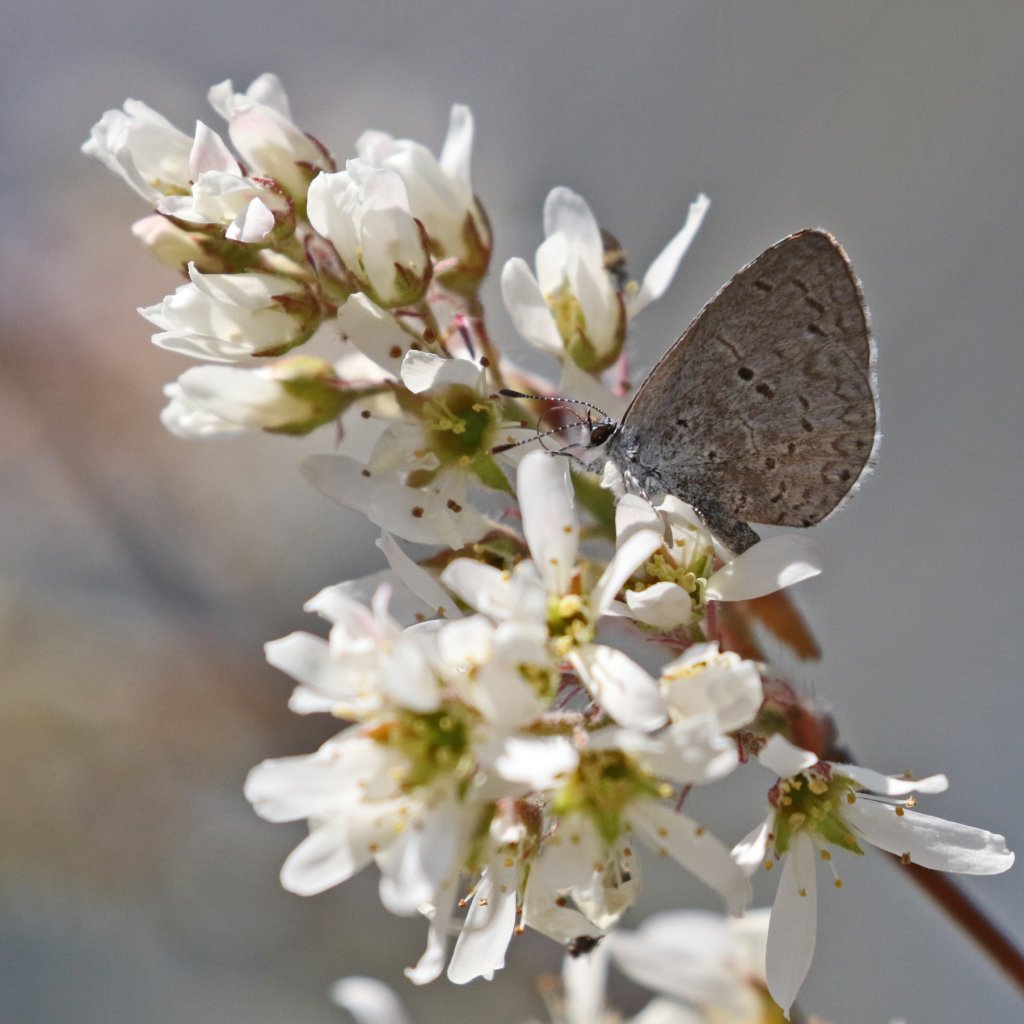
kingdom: Animalia
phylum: Arthropoda
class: Insecta
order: Lepidoptera
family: Lycaenidae
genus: Celastrina
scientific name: Celastrina ladon
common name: Spring Azure
